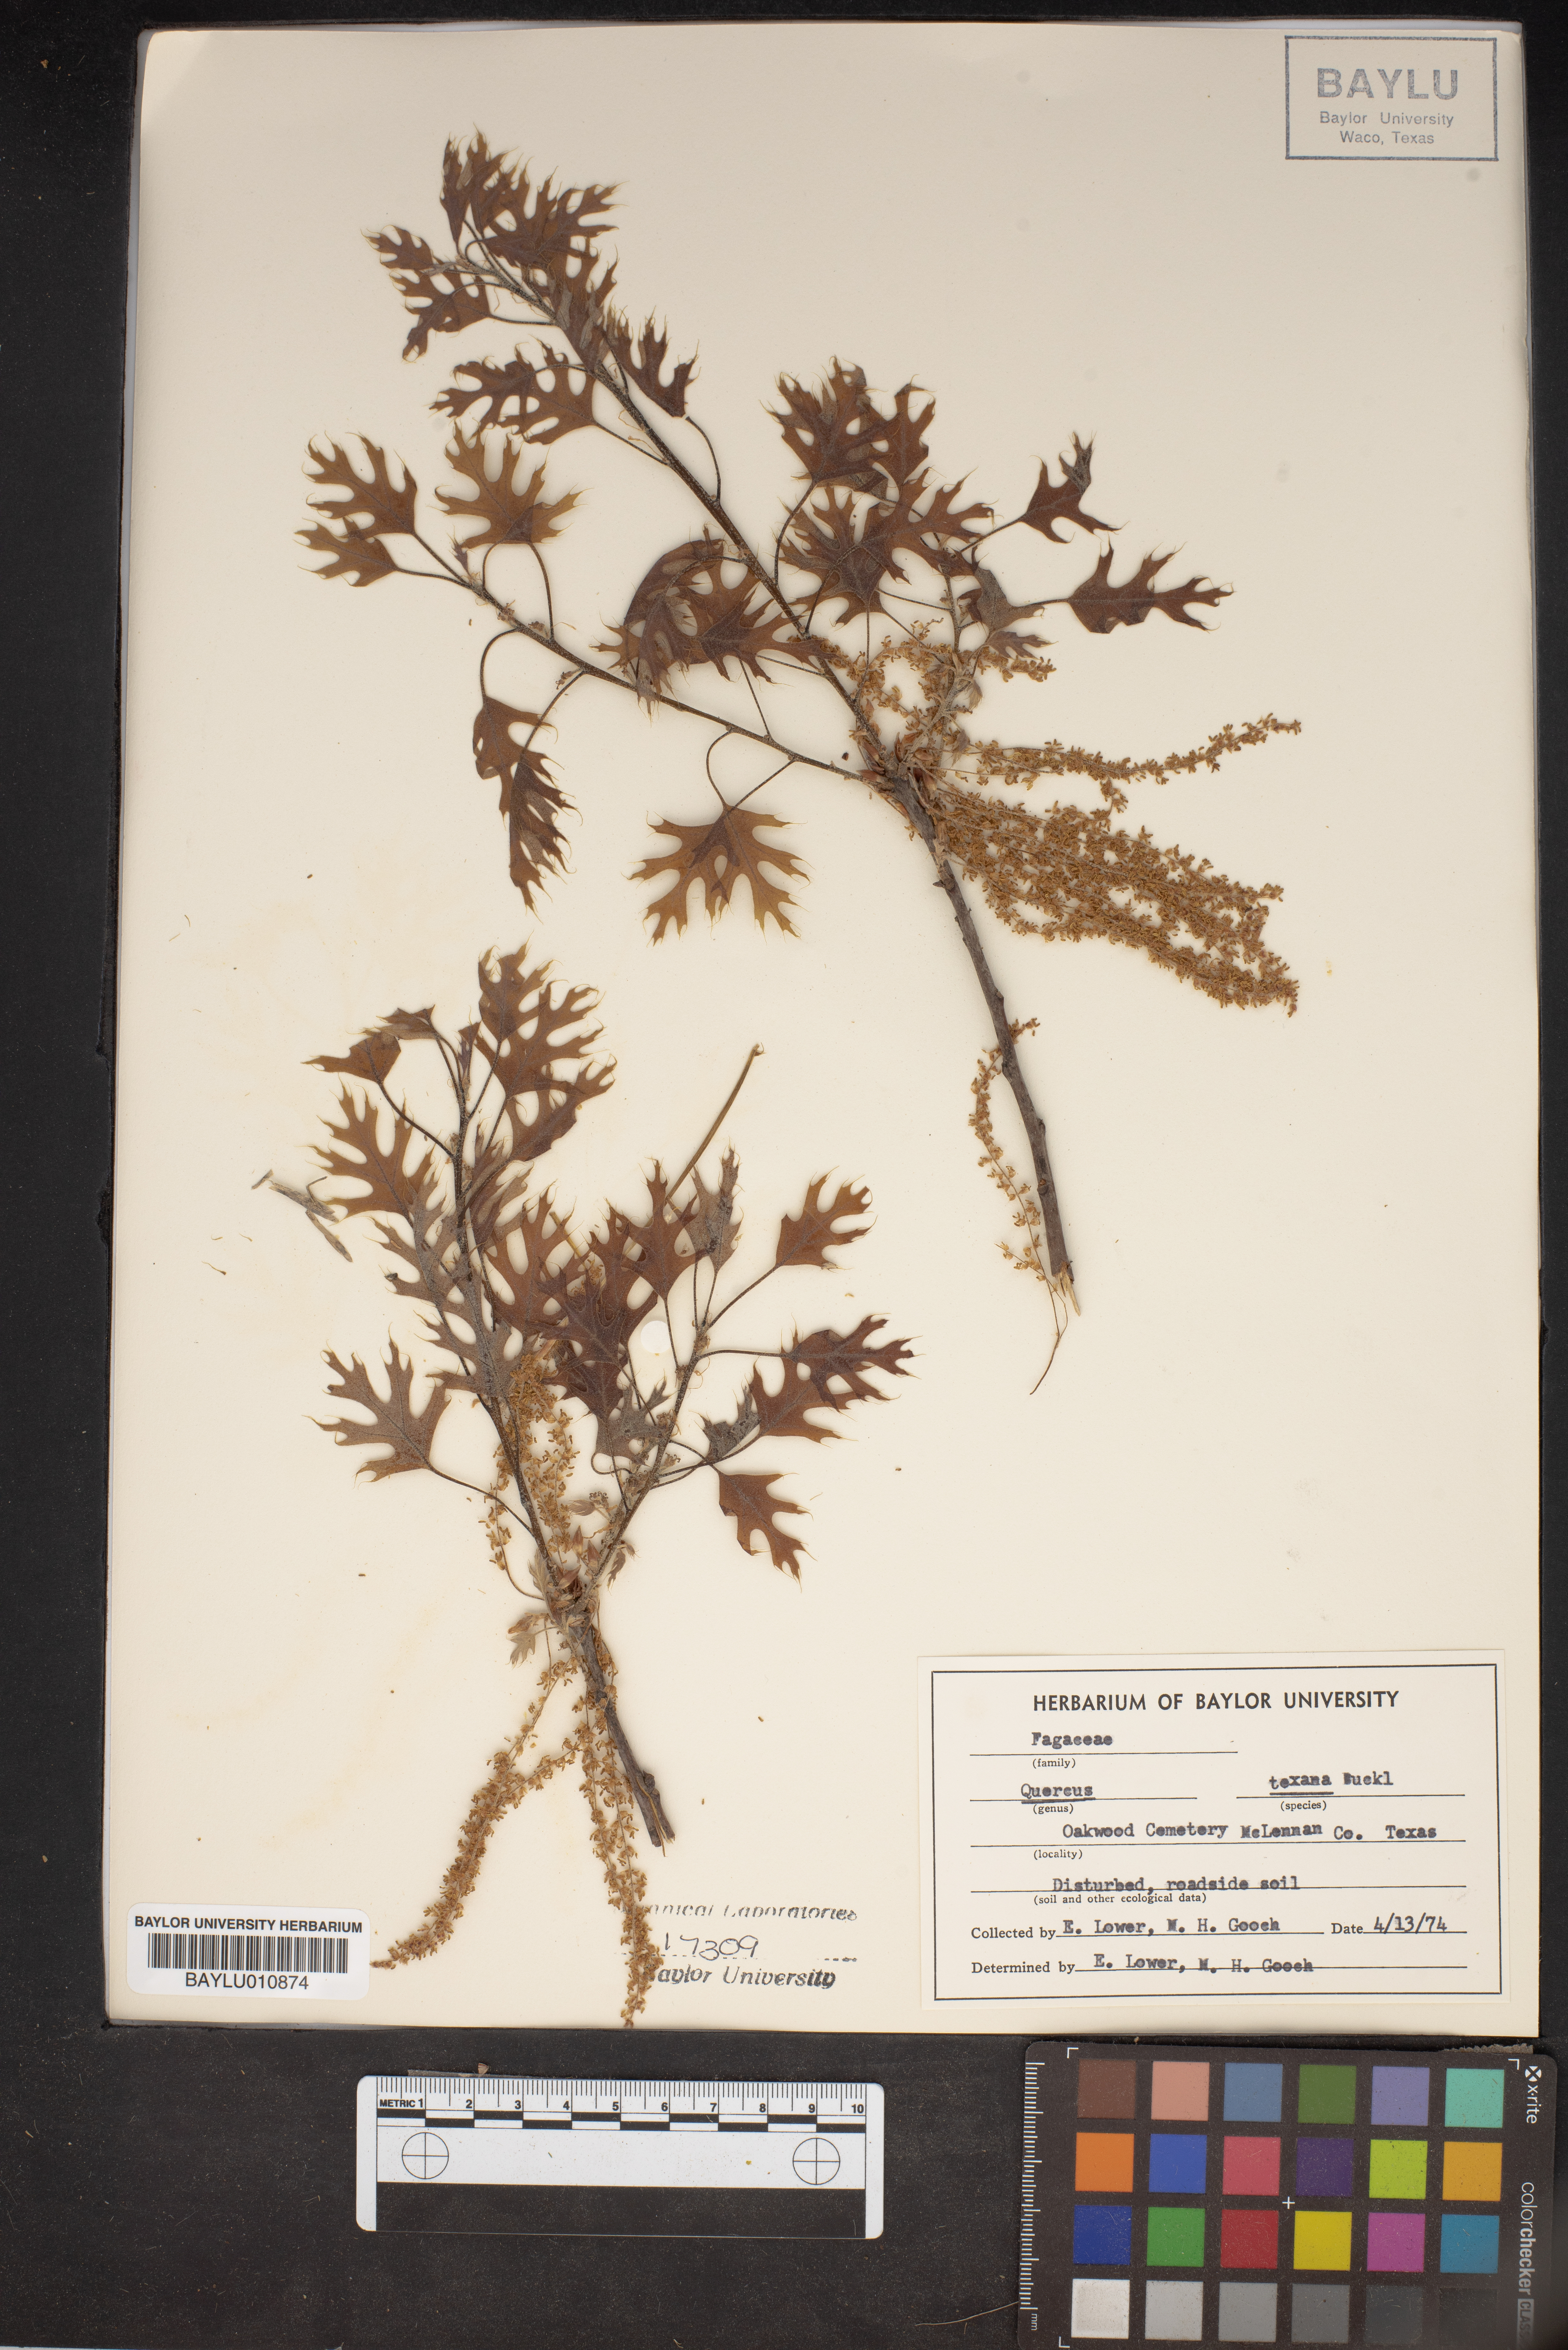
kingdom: Plantae
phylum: Tracheophyta
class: Magnoliopsida
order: Fagales
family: Fagaceae
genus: Quercus
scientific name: Quercus texana
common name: Nuttall oak
